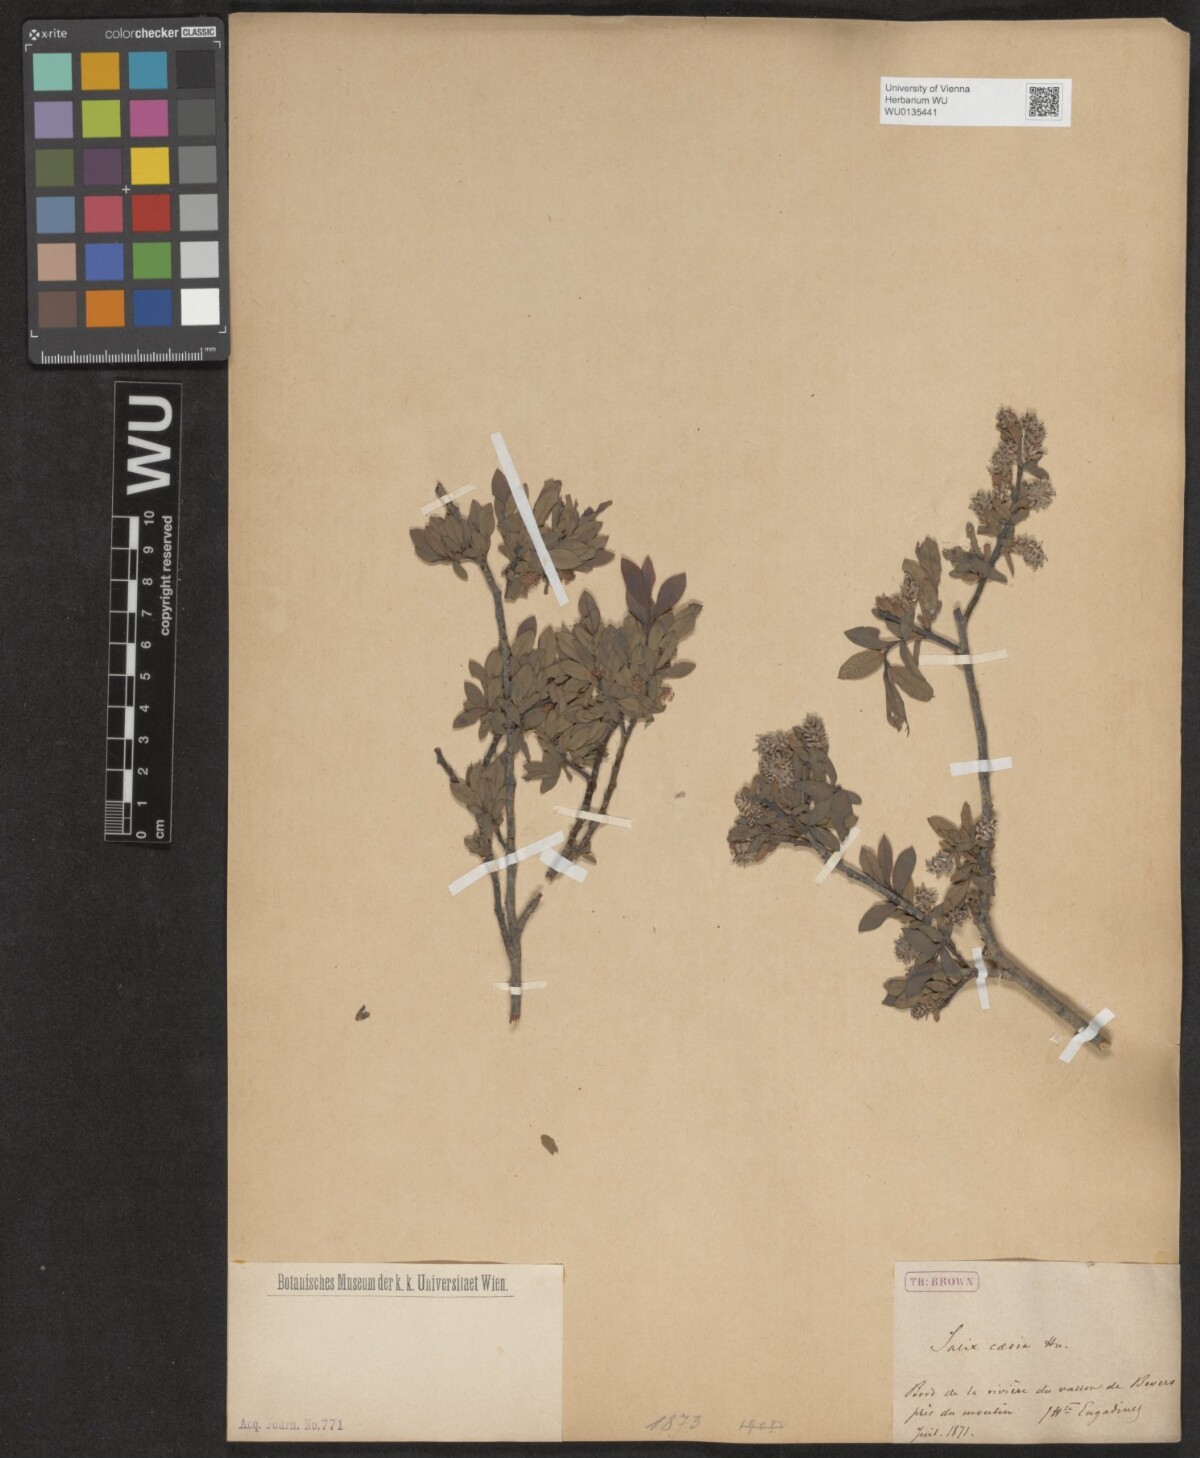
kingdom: Plantae
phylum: Tracheophyta
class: Magnoliopsida
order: Malpighiales
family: Salicaceae
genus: Salix
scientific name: Salix caesia
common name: Blue willow
